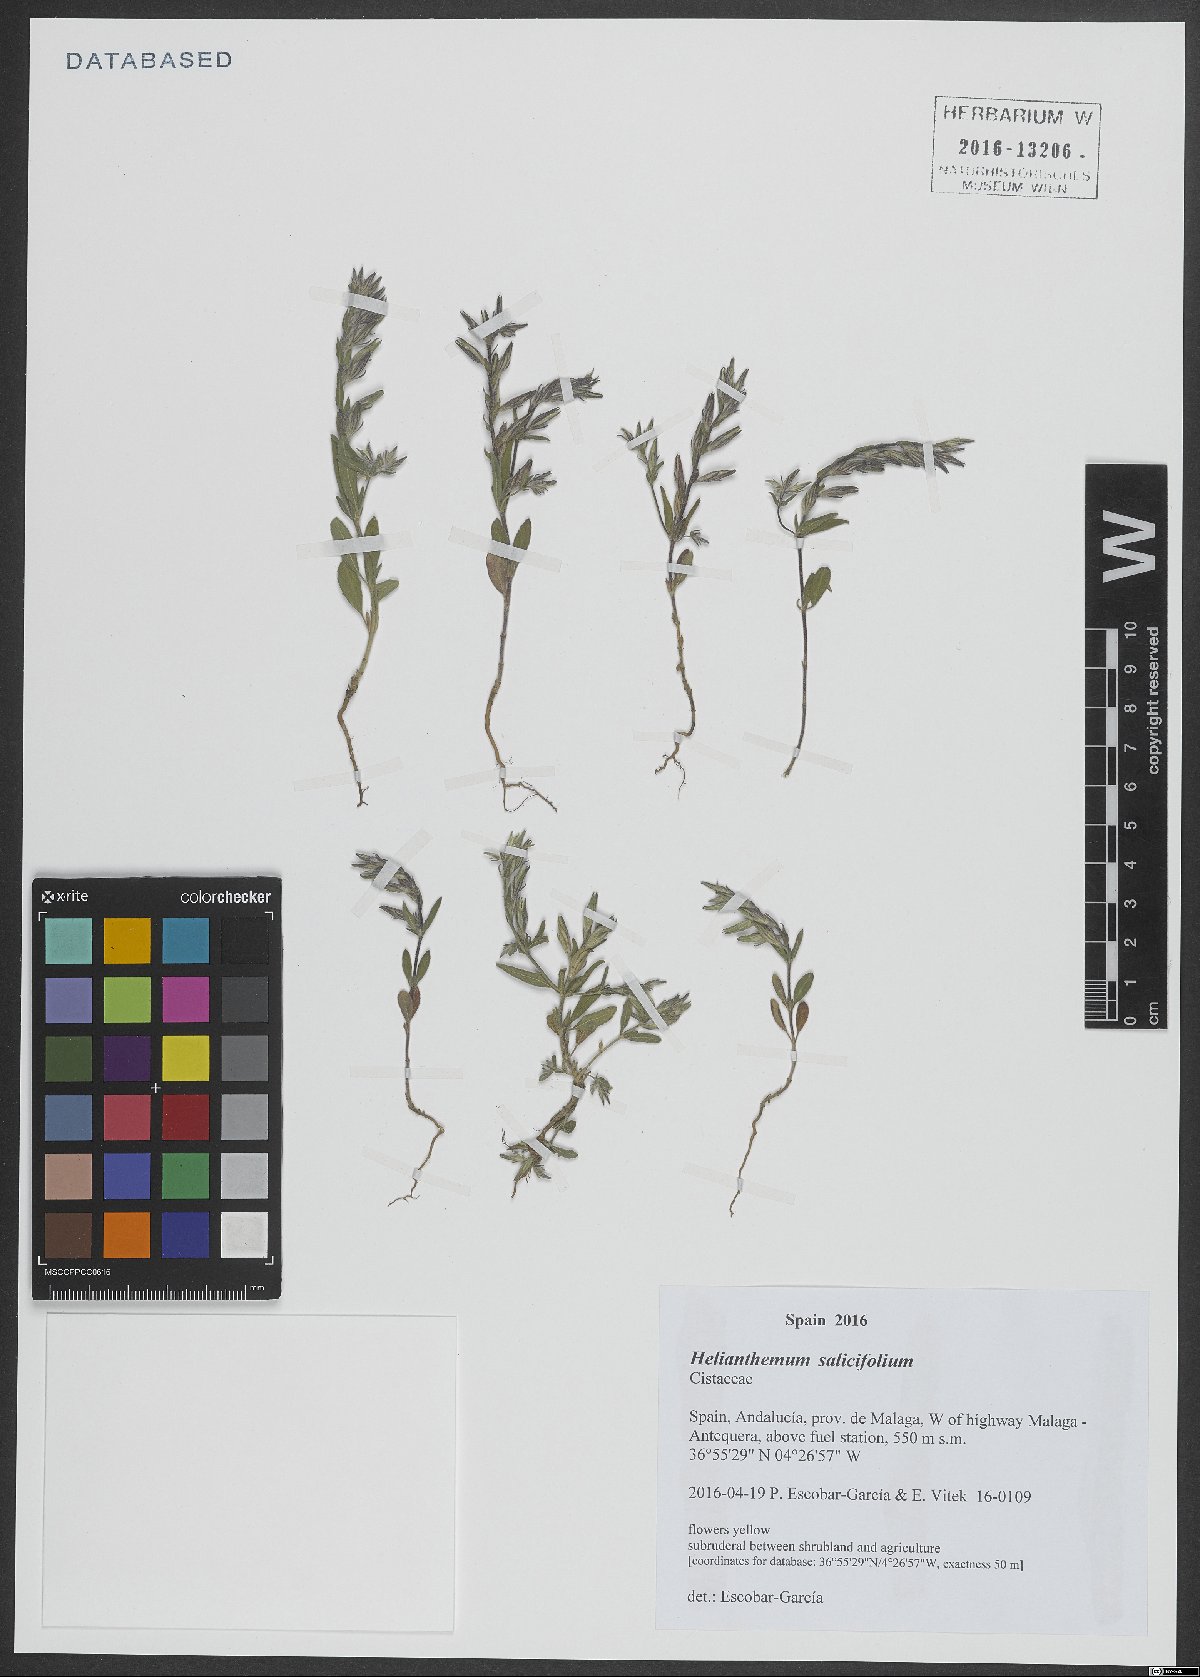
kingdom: Plantae
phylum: Tracheophyta
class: Magnoliopsida
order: Malvales
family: Cistaceae
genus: Helianthemum
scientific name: Helianthemum salicifolium
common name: Willowleaf frostweed
